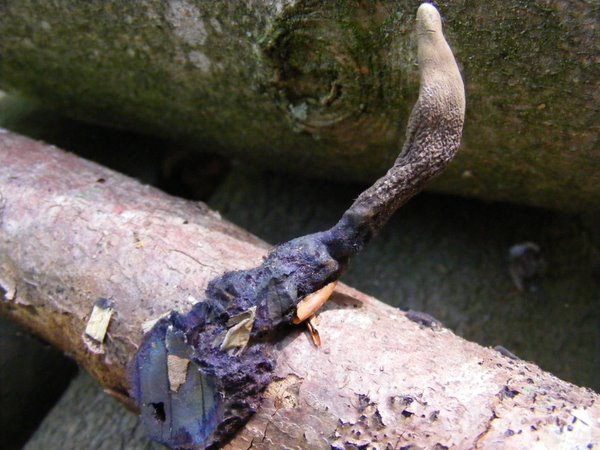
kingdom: Fungi
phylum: Ascomycota
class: Sordariomycetes
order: Xylariales
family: Xylariaceae
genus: Xylaria
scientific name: Xylaria longipes
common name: slank stødsvamp
